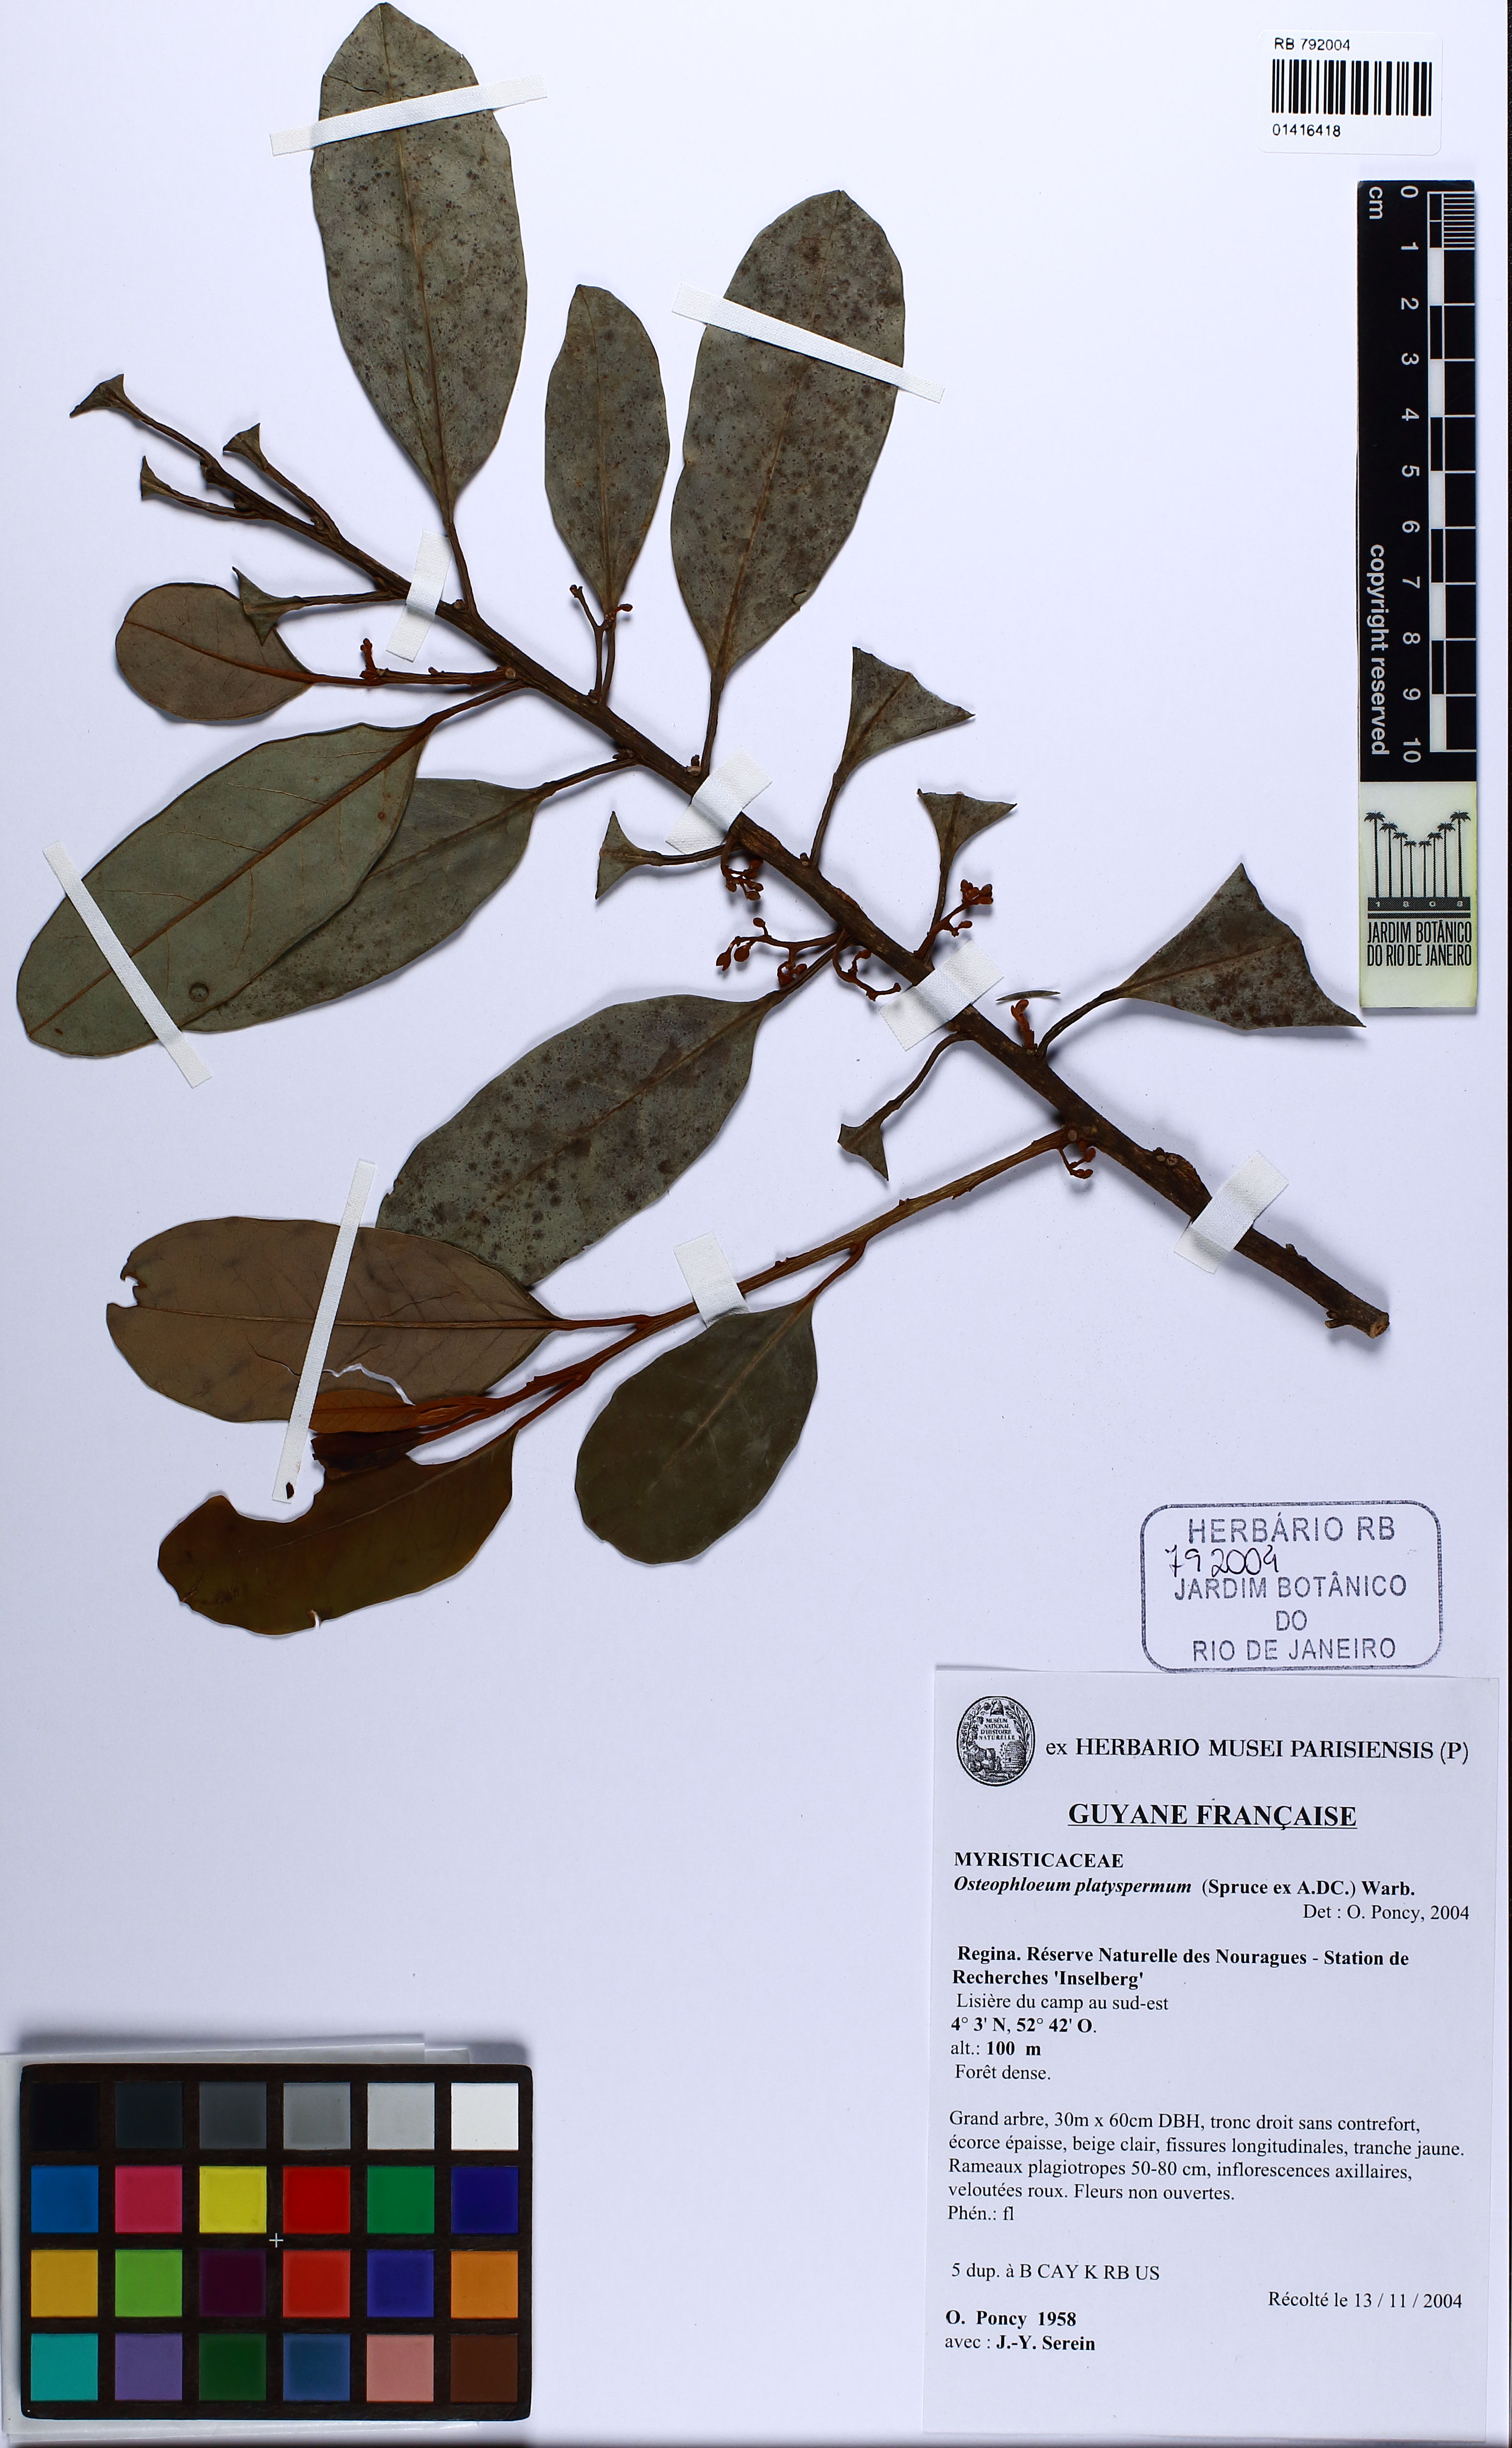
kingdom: Plantae
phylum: Tracheophyta
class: Magnoliopsida
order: Magnoliales
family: Myristicaceae
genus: Osteophloeum
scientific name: Osteophloeum platyspermum
